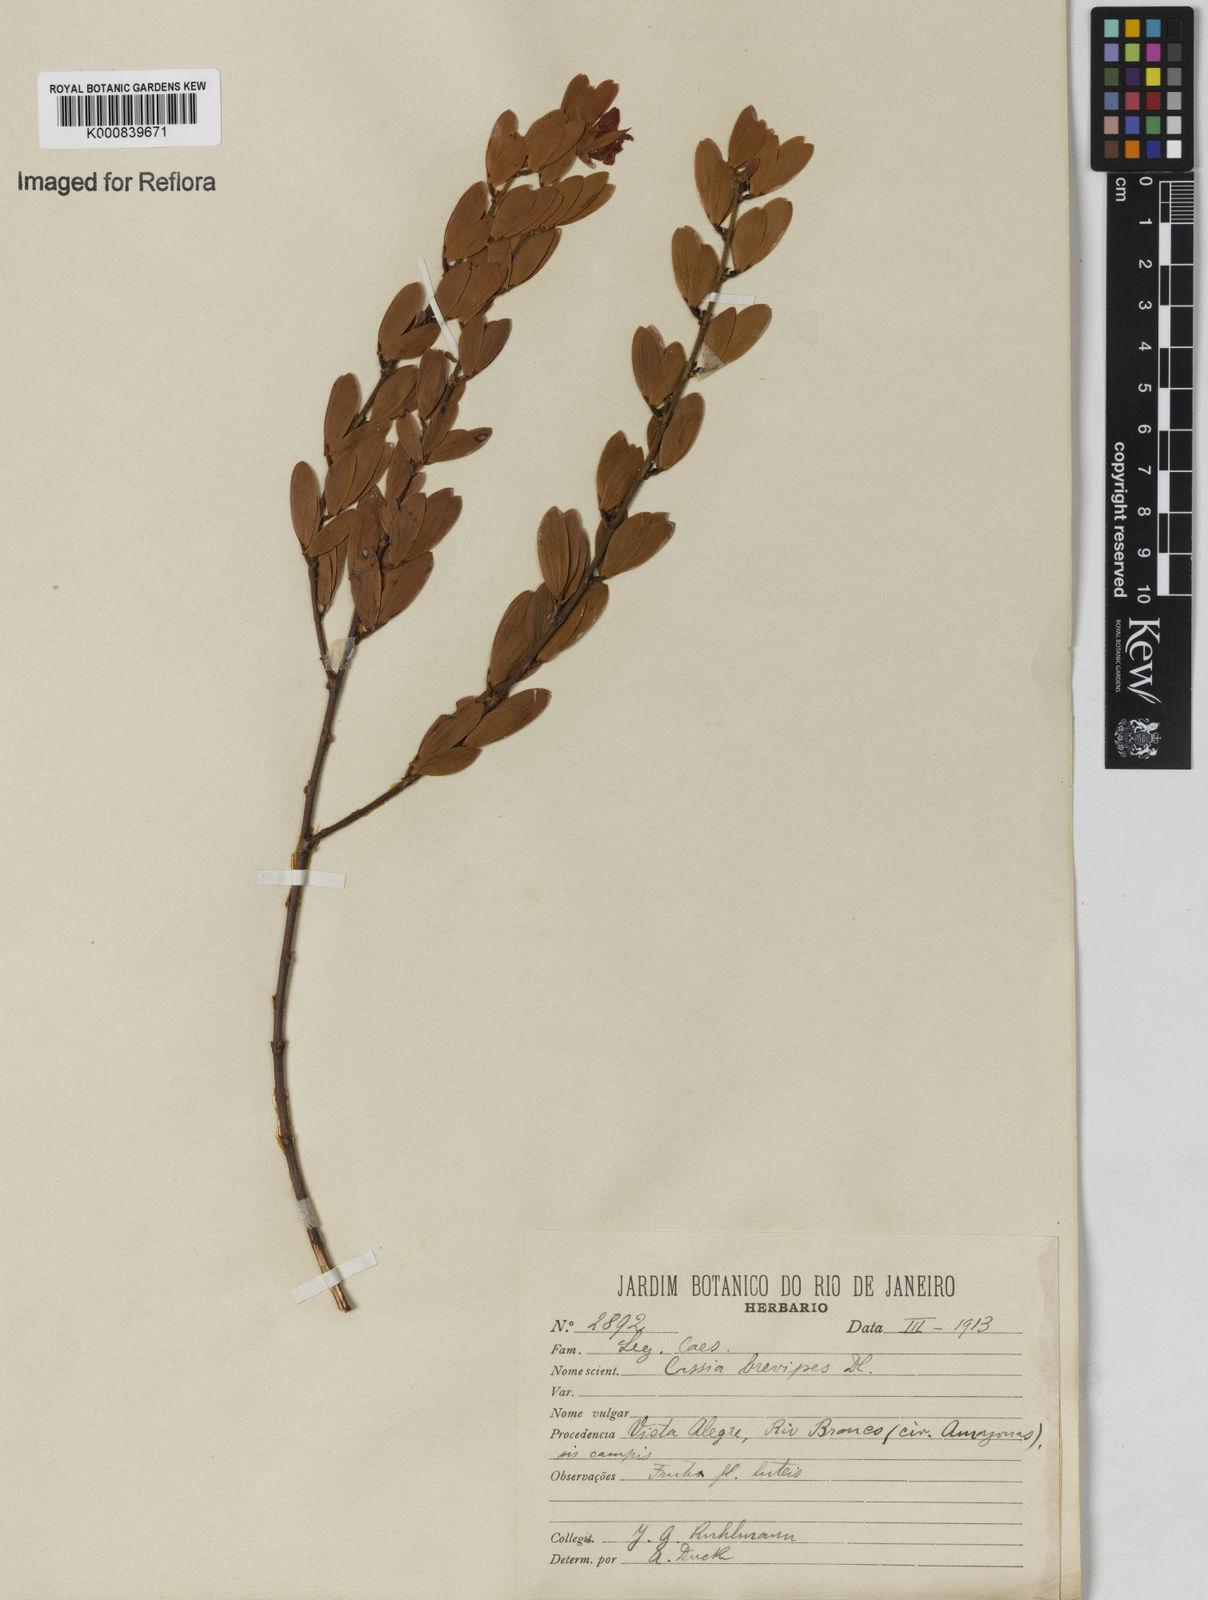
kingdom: Plantae
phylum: Tracheophyta
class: Magnoliopsida
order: Fabales
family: Fabaceae
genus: Chamaecrista
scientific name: Chamaecrista desvauxii
